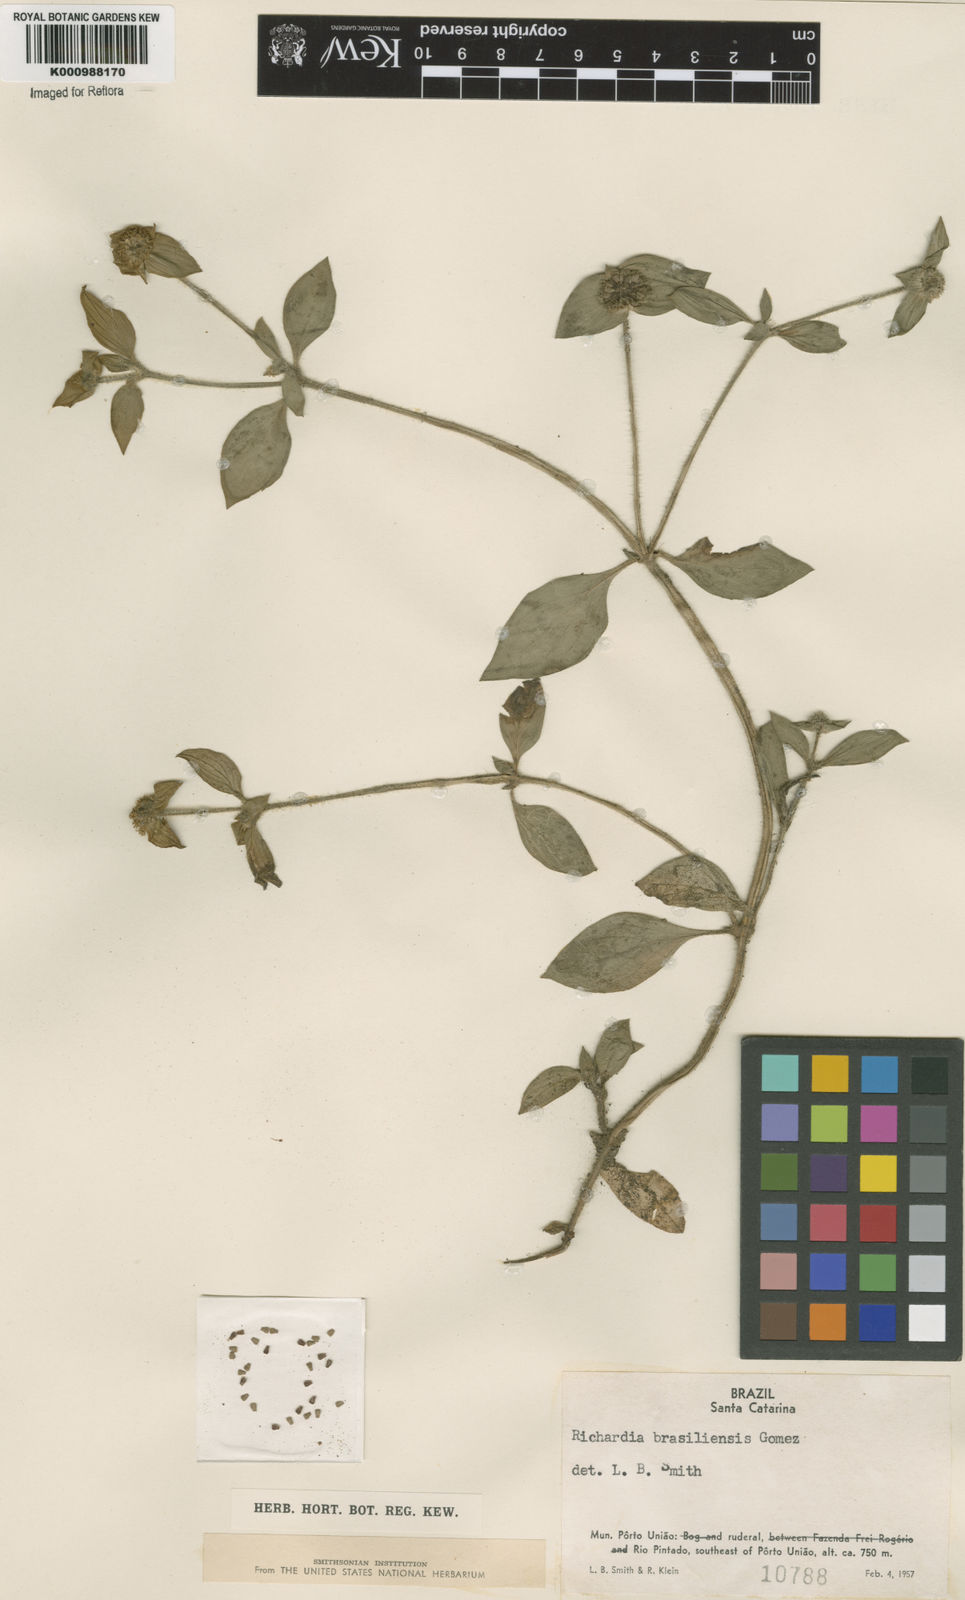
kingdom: Plantae
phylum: Tracheophyta
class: Magnoliopsida
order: Gentianales
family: Rubiaceae
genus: Richardia
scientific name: Richardia brasiliensis
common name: Tropical mexican clover
